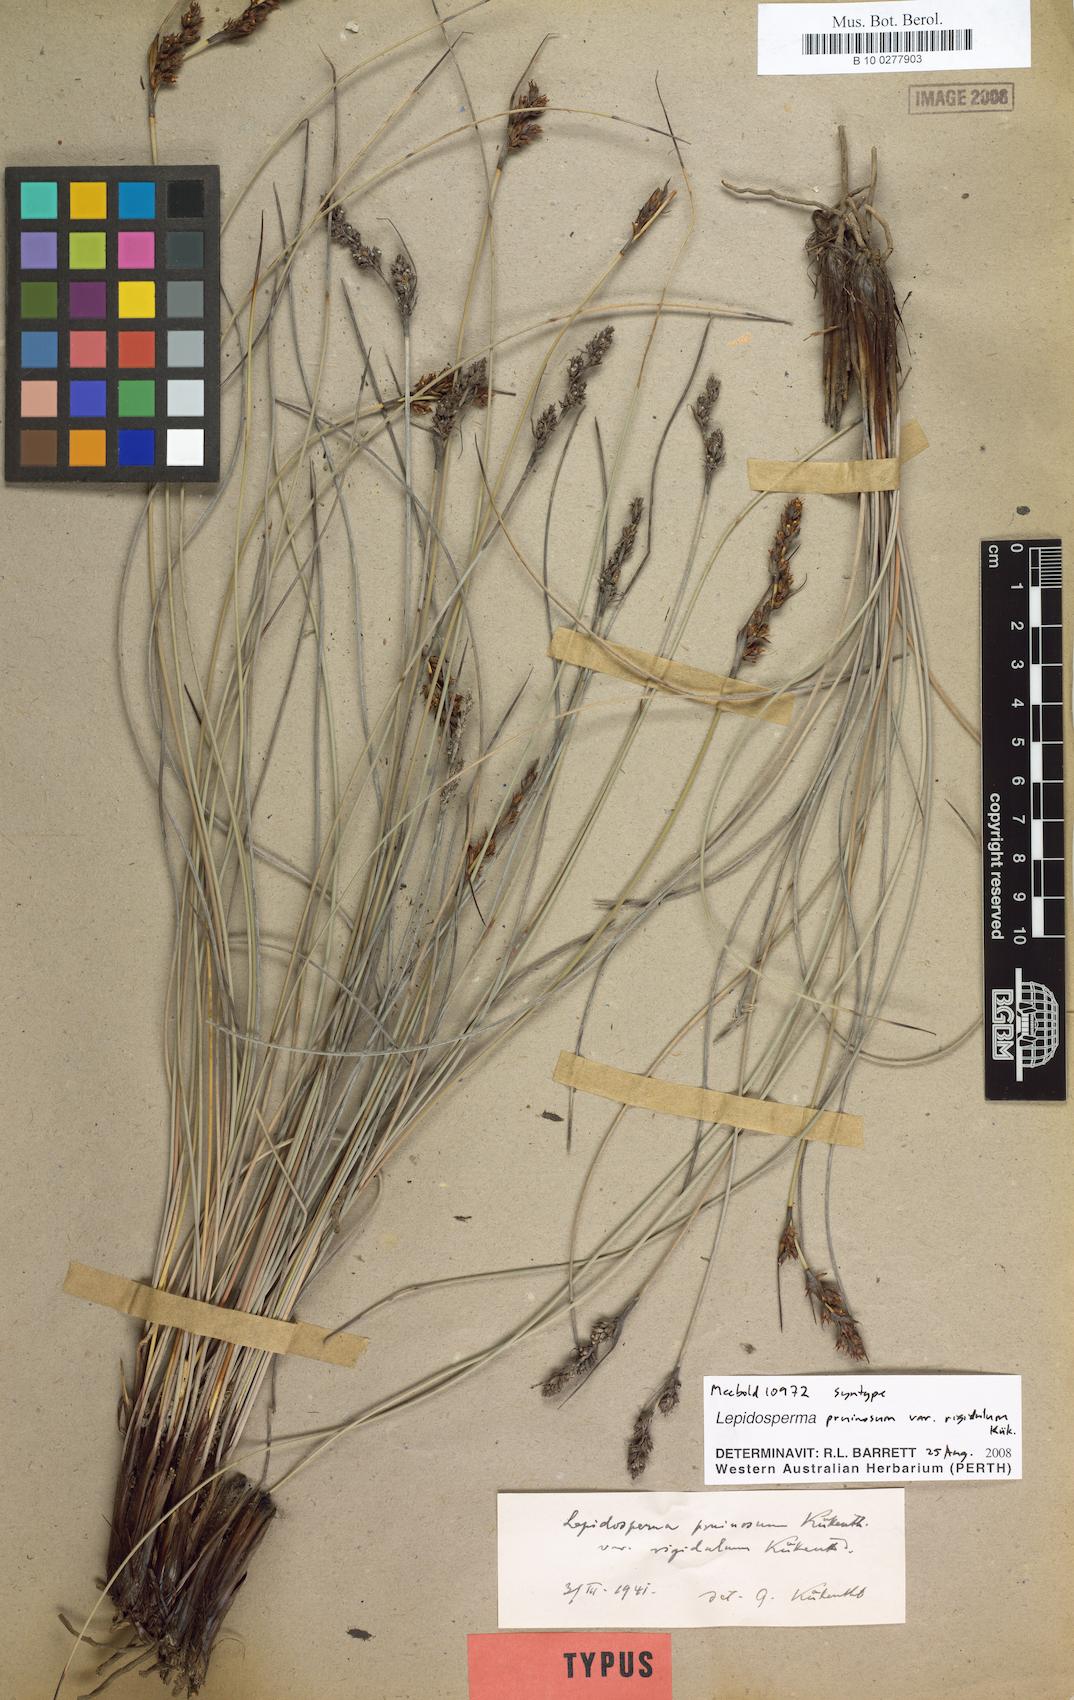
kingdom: Plantae
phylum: Tracheophyta
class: Liliopsida
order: Poales
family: Cyperaceae
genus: Lepidosperma
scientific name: Lepidosperma rigidulum
